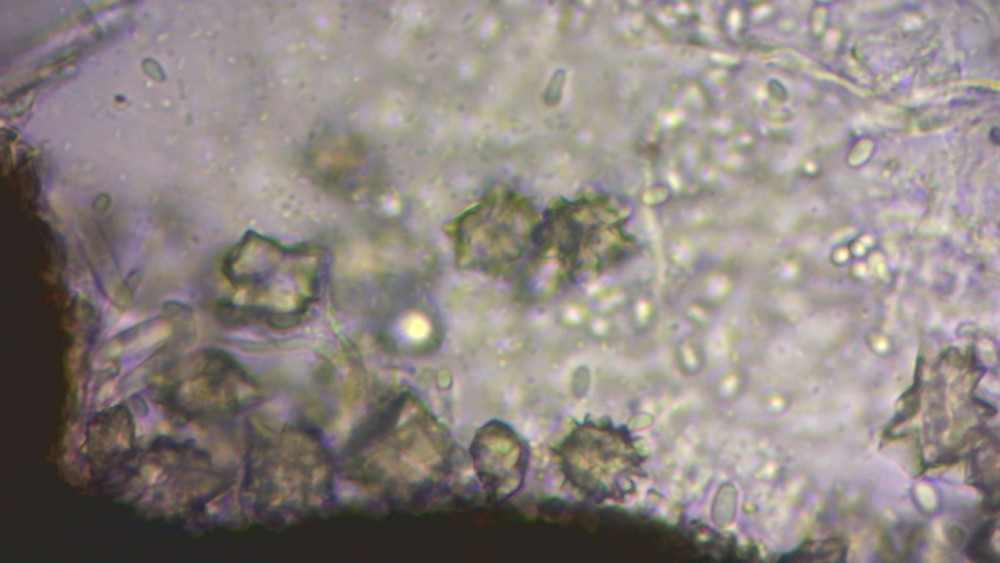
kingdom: Fungi
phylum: Ascomycota
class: Dothideomycetes
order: Pleosporales
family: Leptosphaeriaceae
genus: Leptosphaeria
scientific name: Leptosphaeria acuta
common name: spids kulkegle
